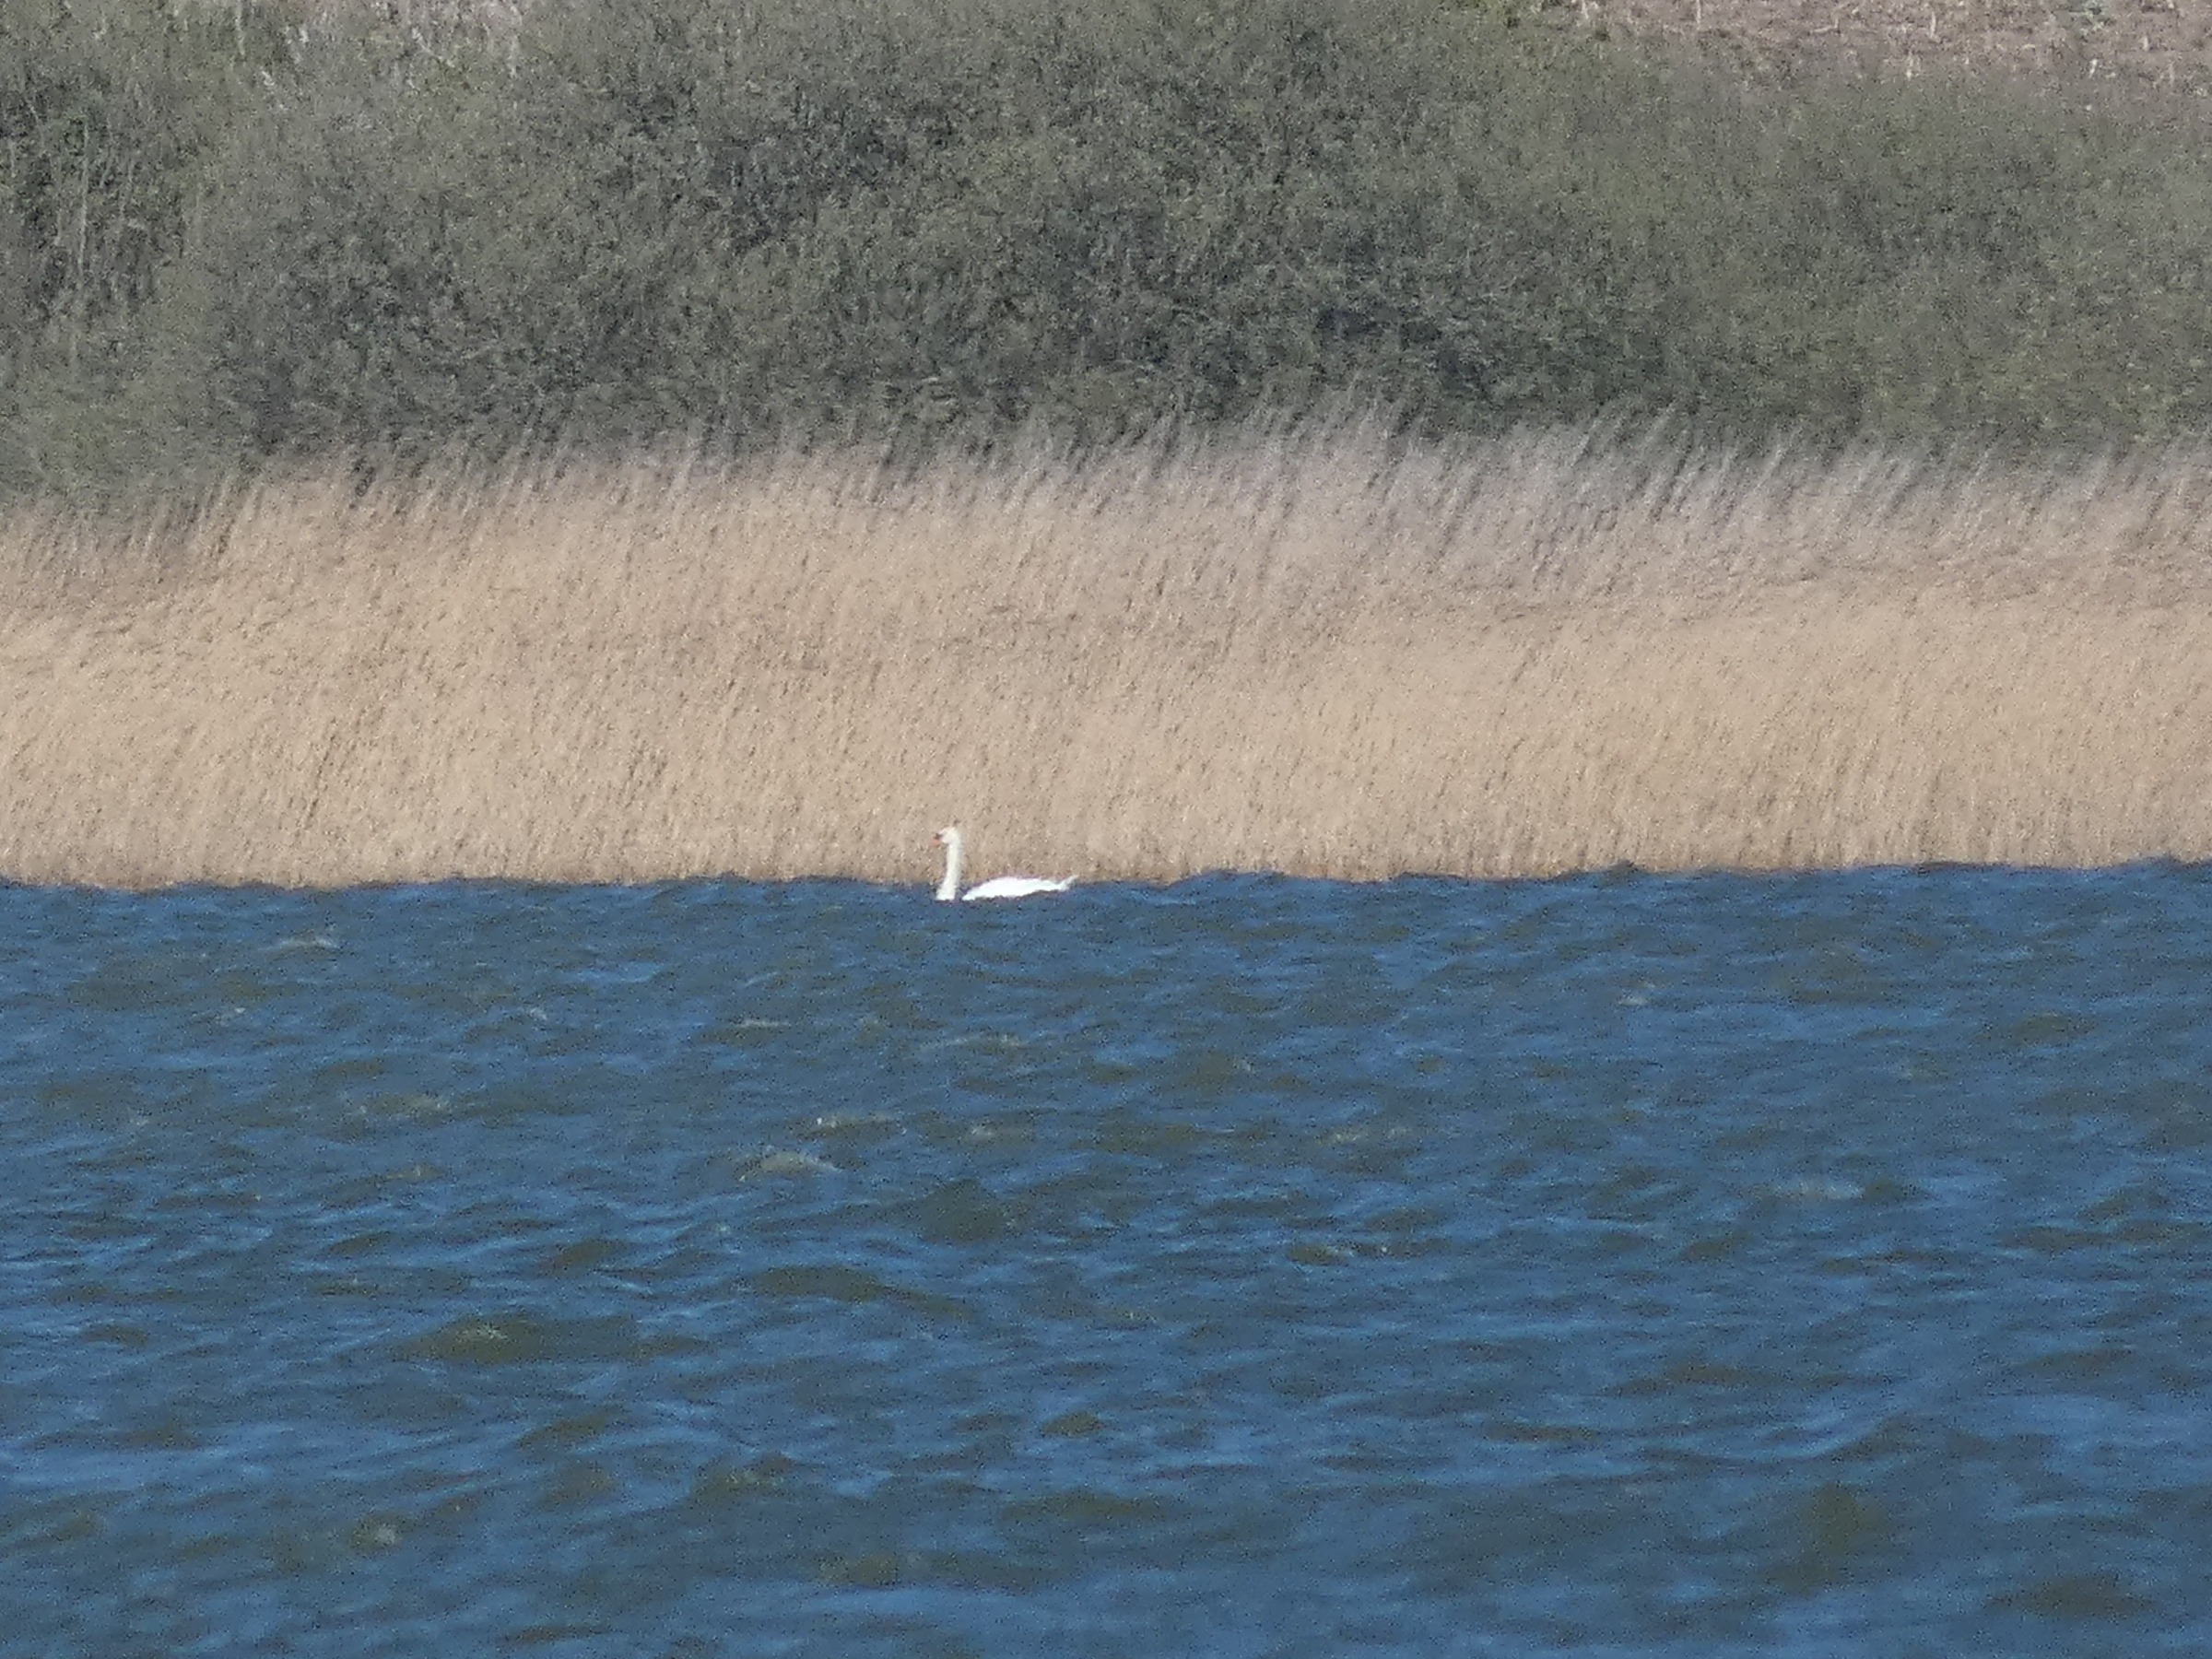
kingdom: Animalia
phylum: Chordata
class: Aves
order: Anseriformes
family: Anatidae
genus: Cygnus
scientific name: Cygnus olor
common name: Knopsvane
